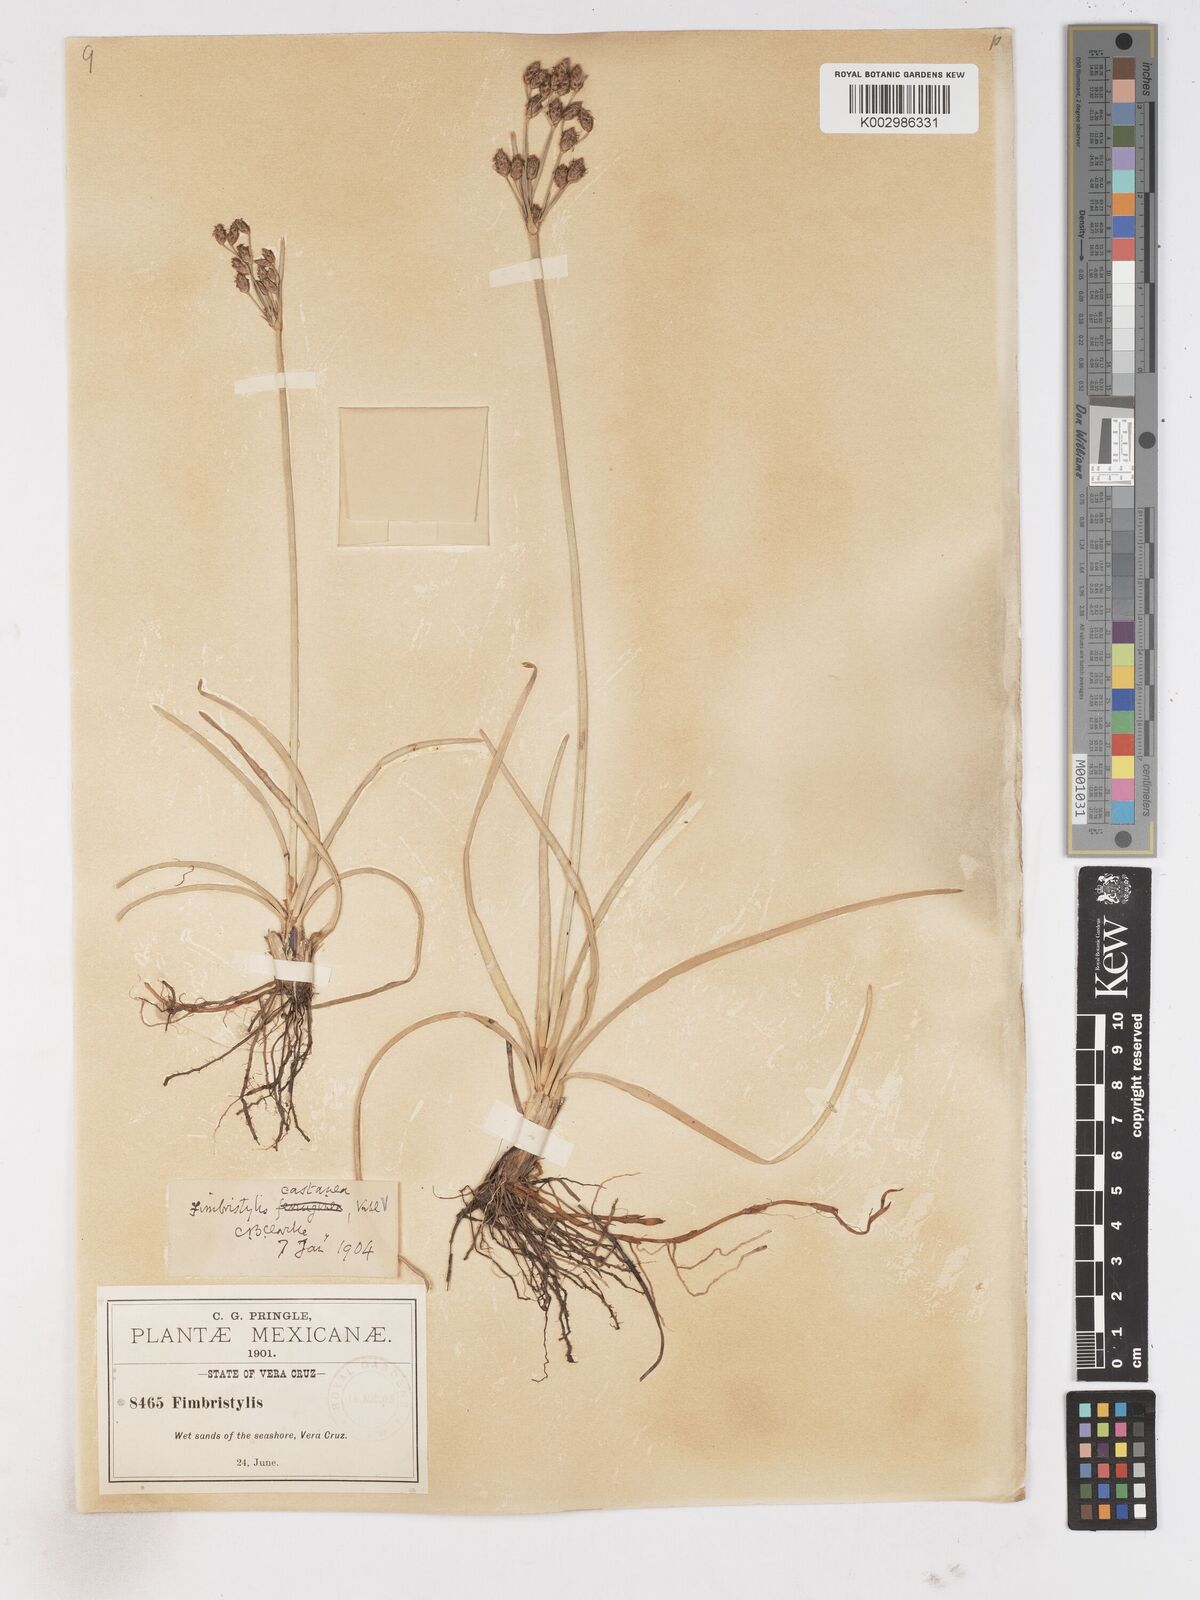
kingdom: Plantae
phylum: Tracheophyta
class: Liliopsida
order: Poales
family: Cyperaceae
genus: Fimbristylis
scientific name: Fimbristylis spadicea
